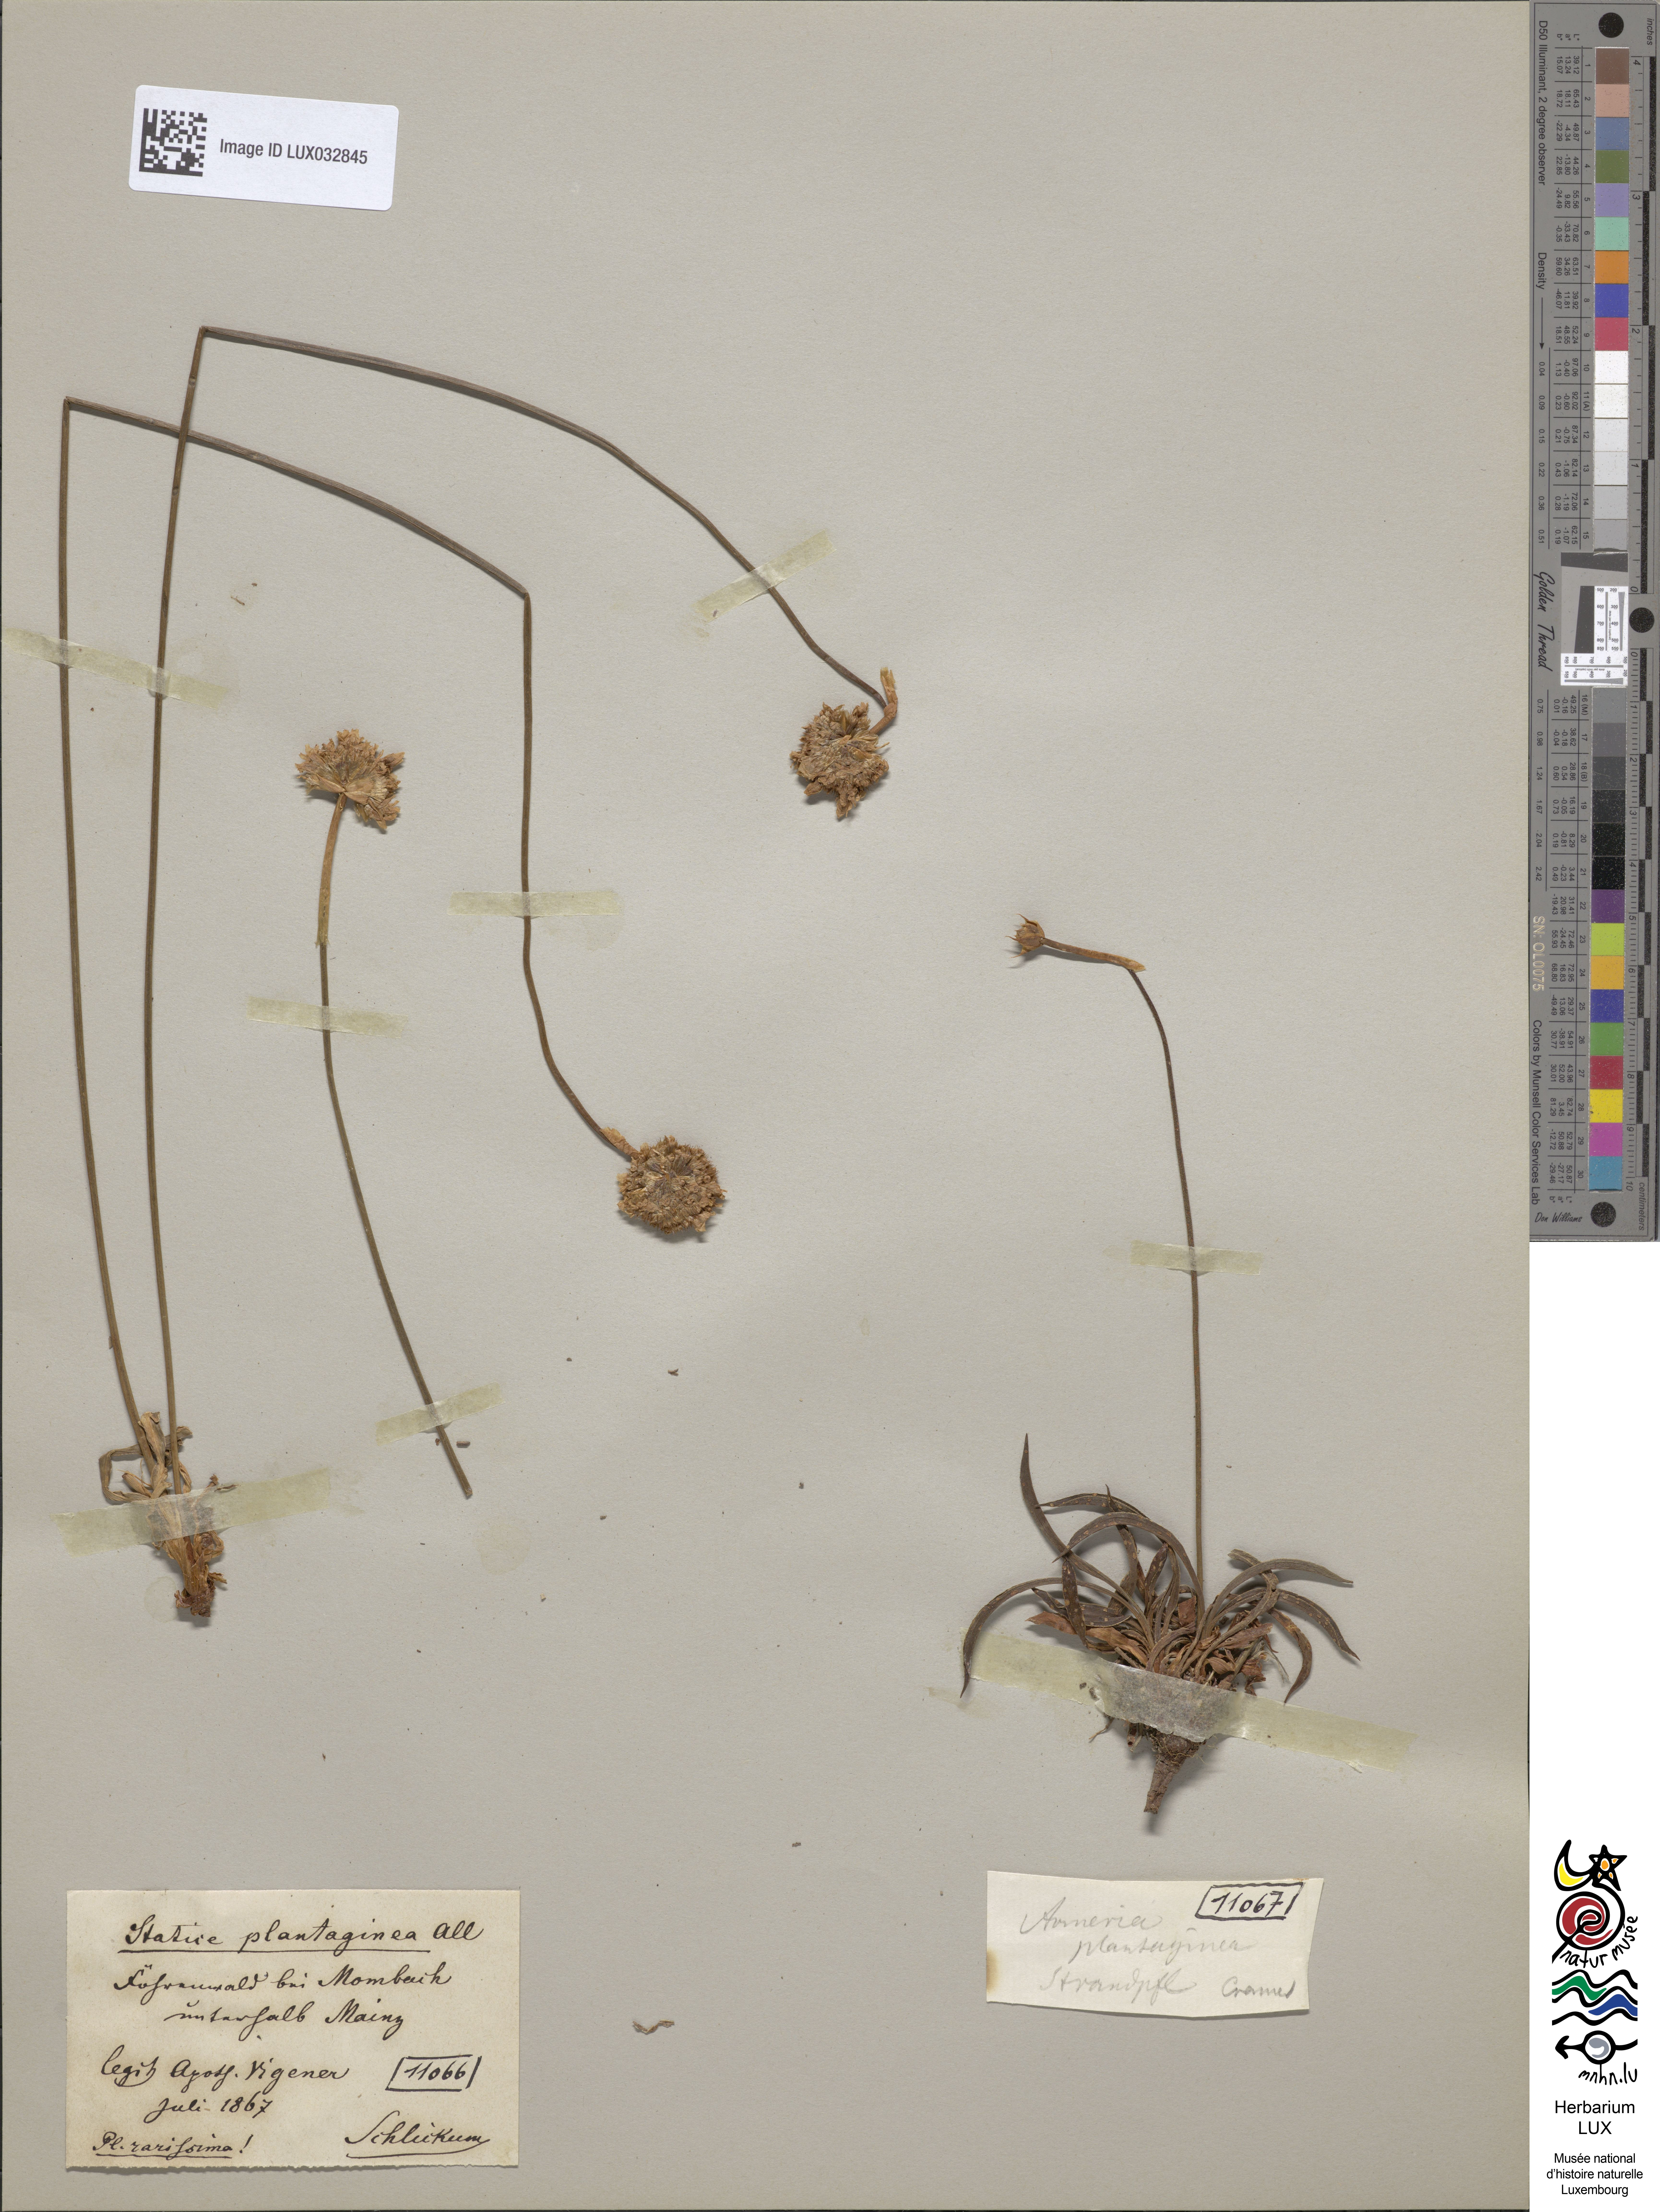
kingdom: Plantae
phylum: Tracheophyta
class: Magnoliopsida
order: Caryophyllales
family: Plumbaginaceae
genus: Armeria
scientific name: Armeria alliacea
